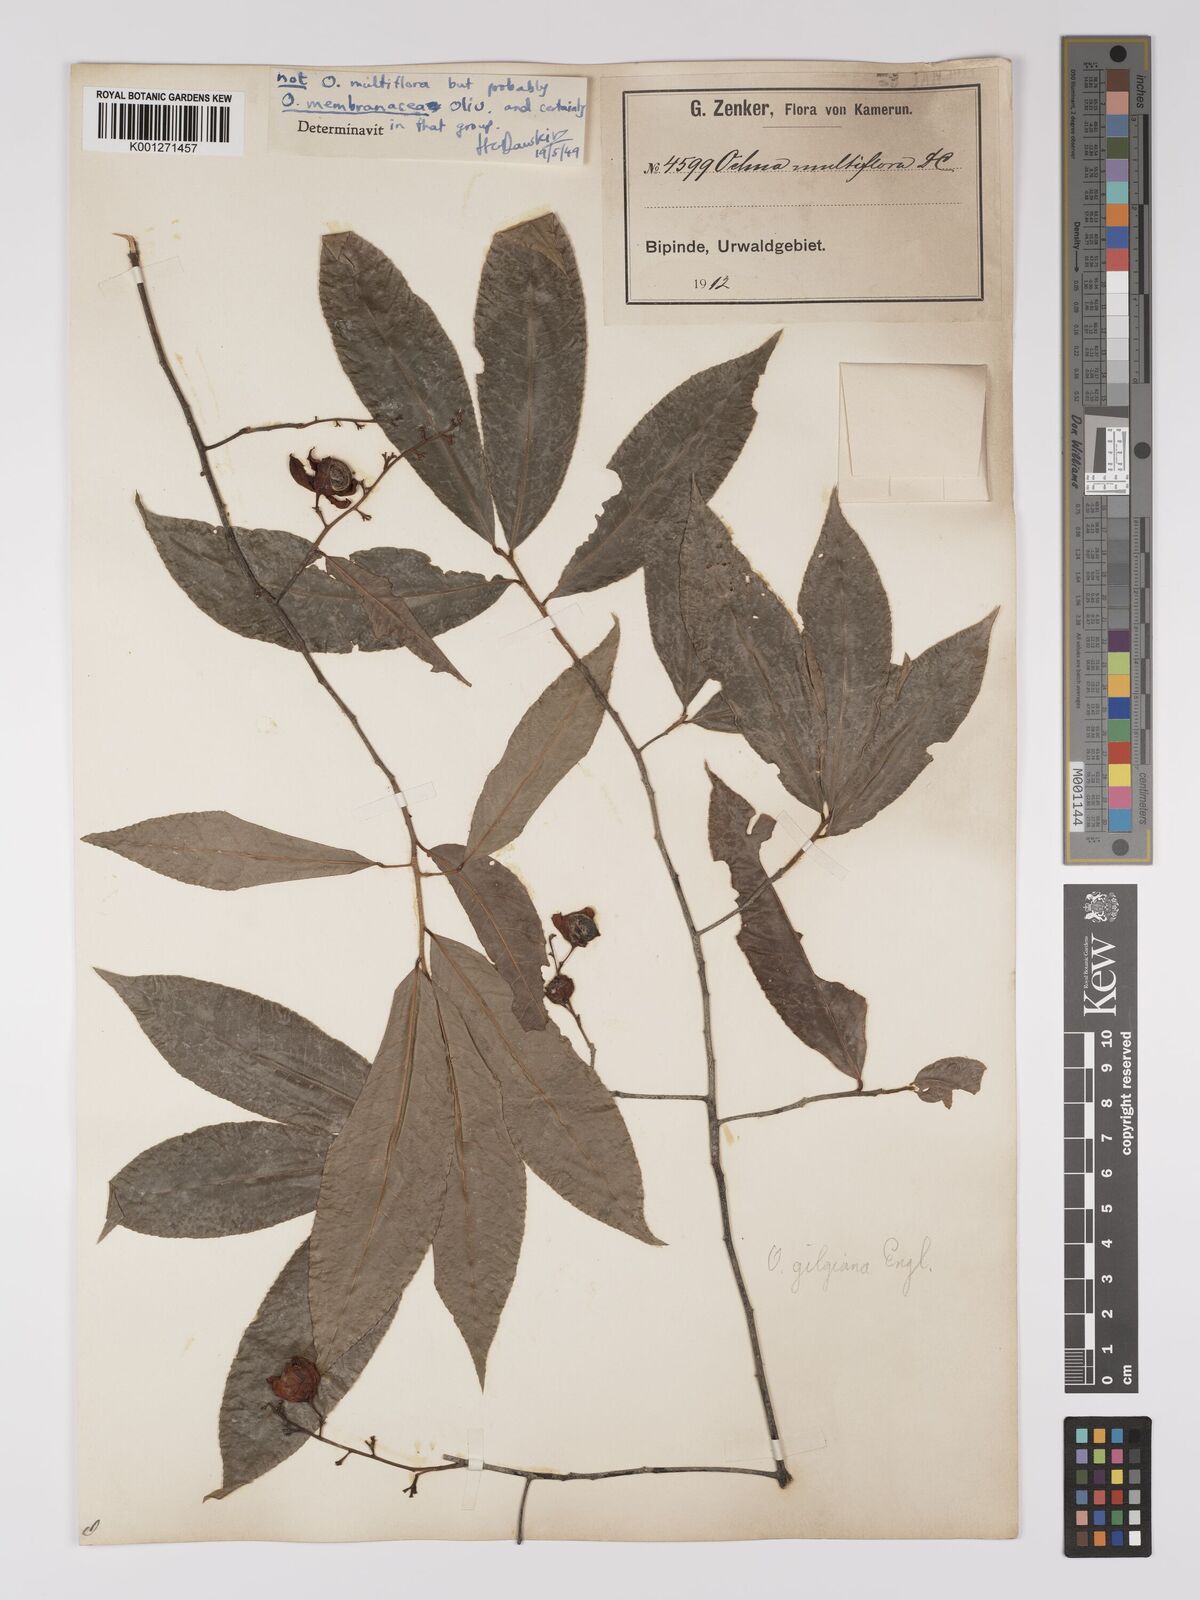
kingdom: Plantae
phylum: Tracheophyta
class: Magnoliopsida
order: Malpighiales
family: Ochnaceae
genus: Ochna
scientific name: Ochna membranacea
